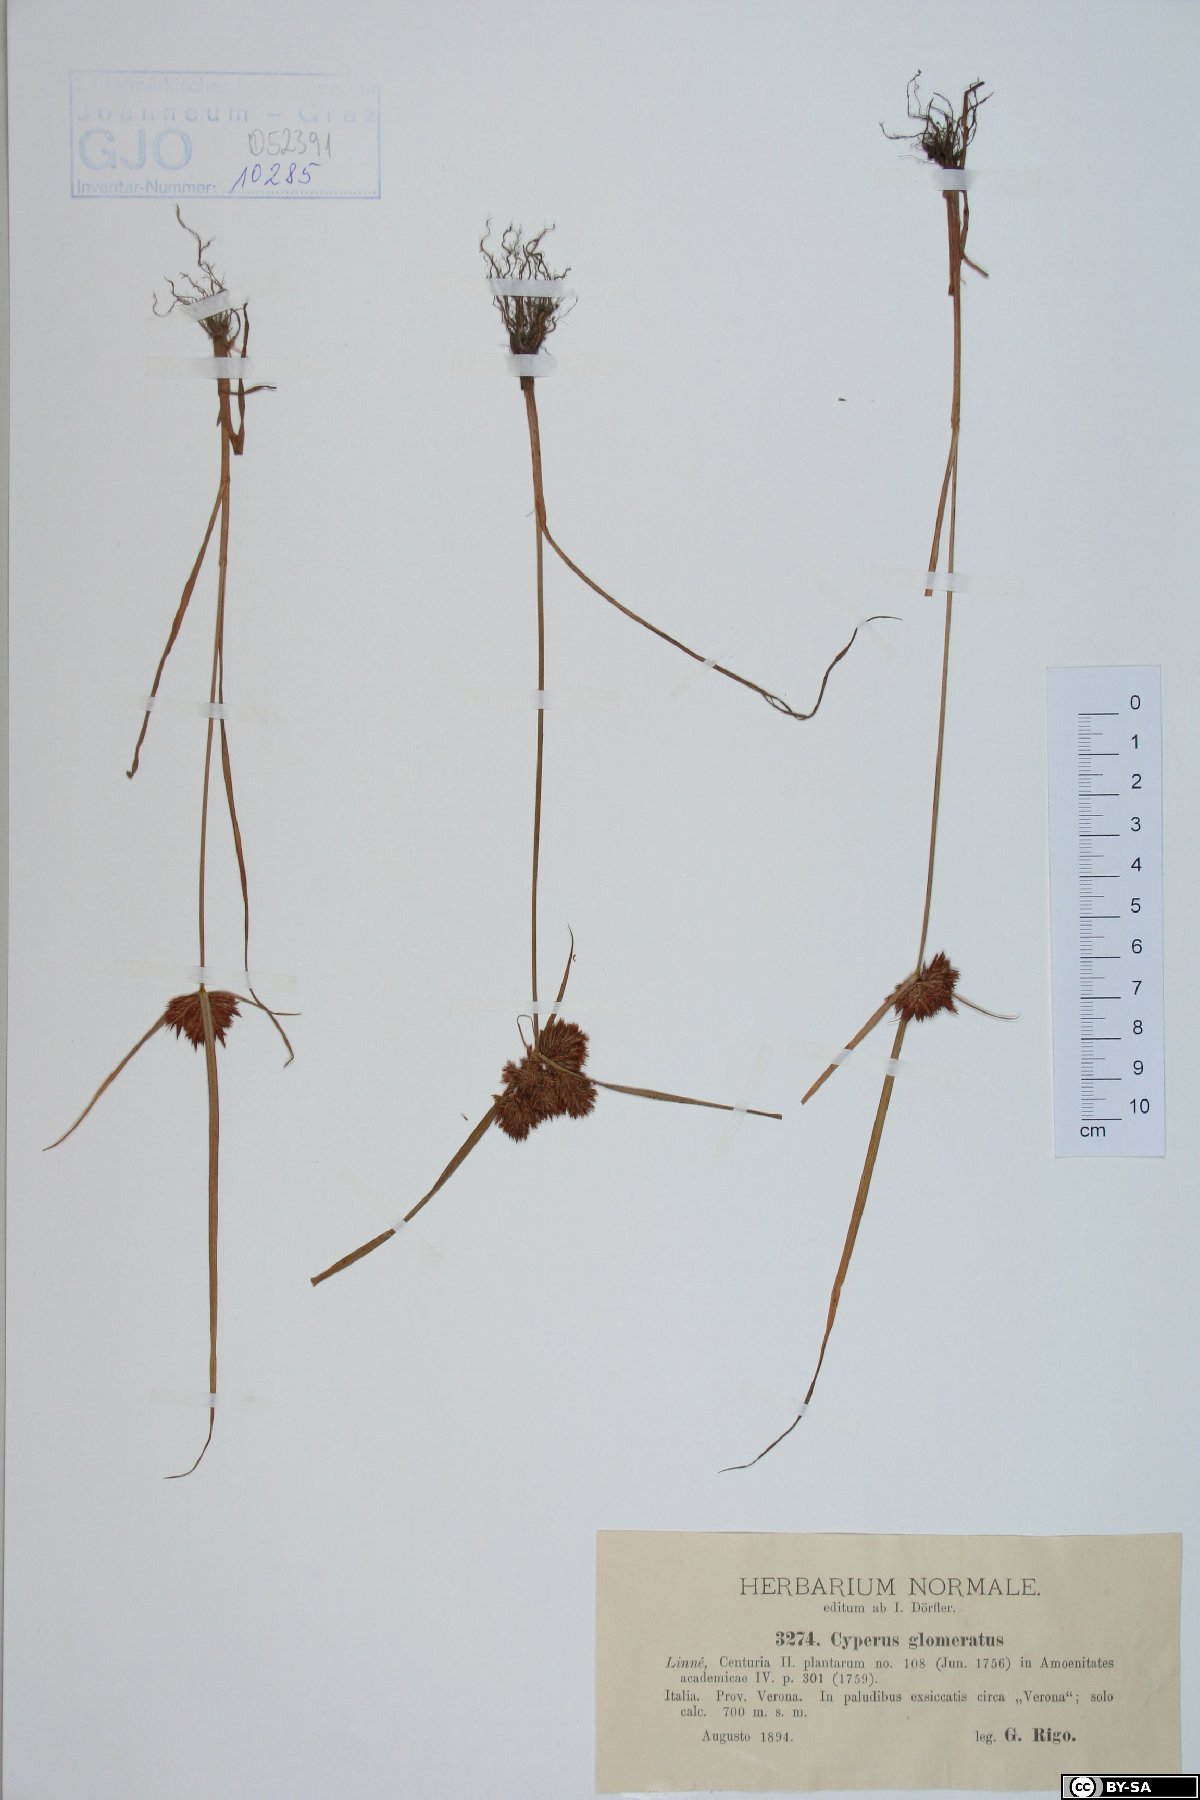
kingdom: Plantae
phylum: Tracheophyta
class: Liliopsida
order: Poales
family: Cyperaceae
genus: Cyperus
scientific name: Cyperus glomeratus
